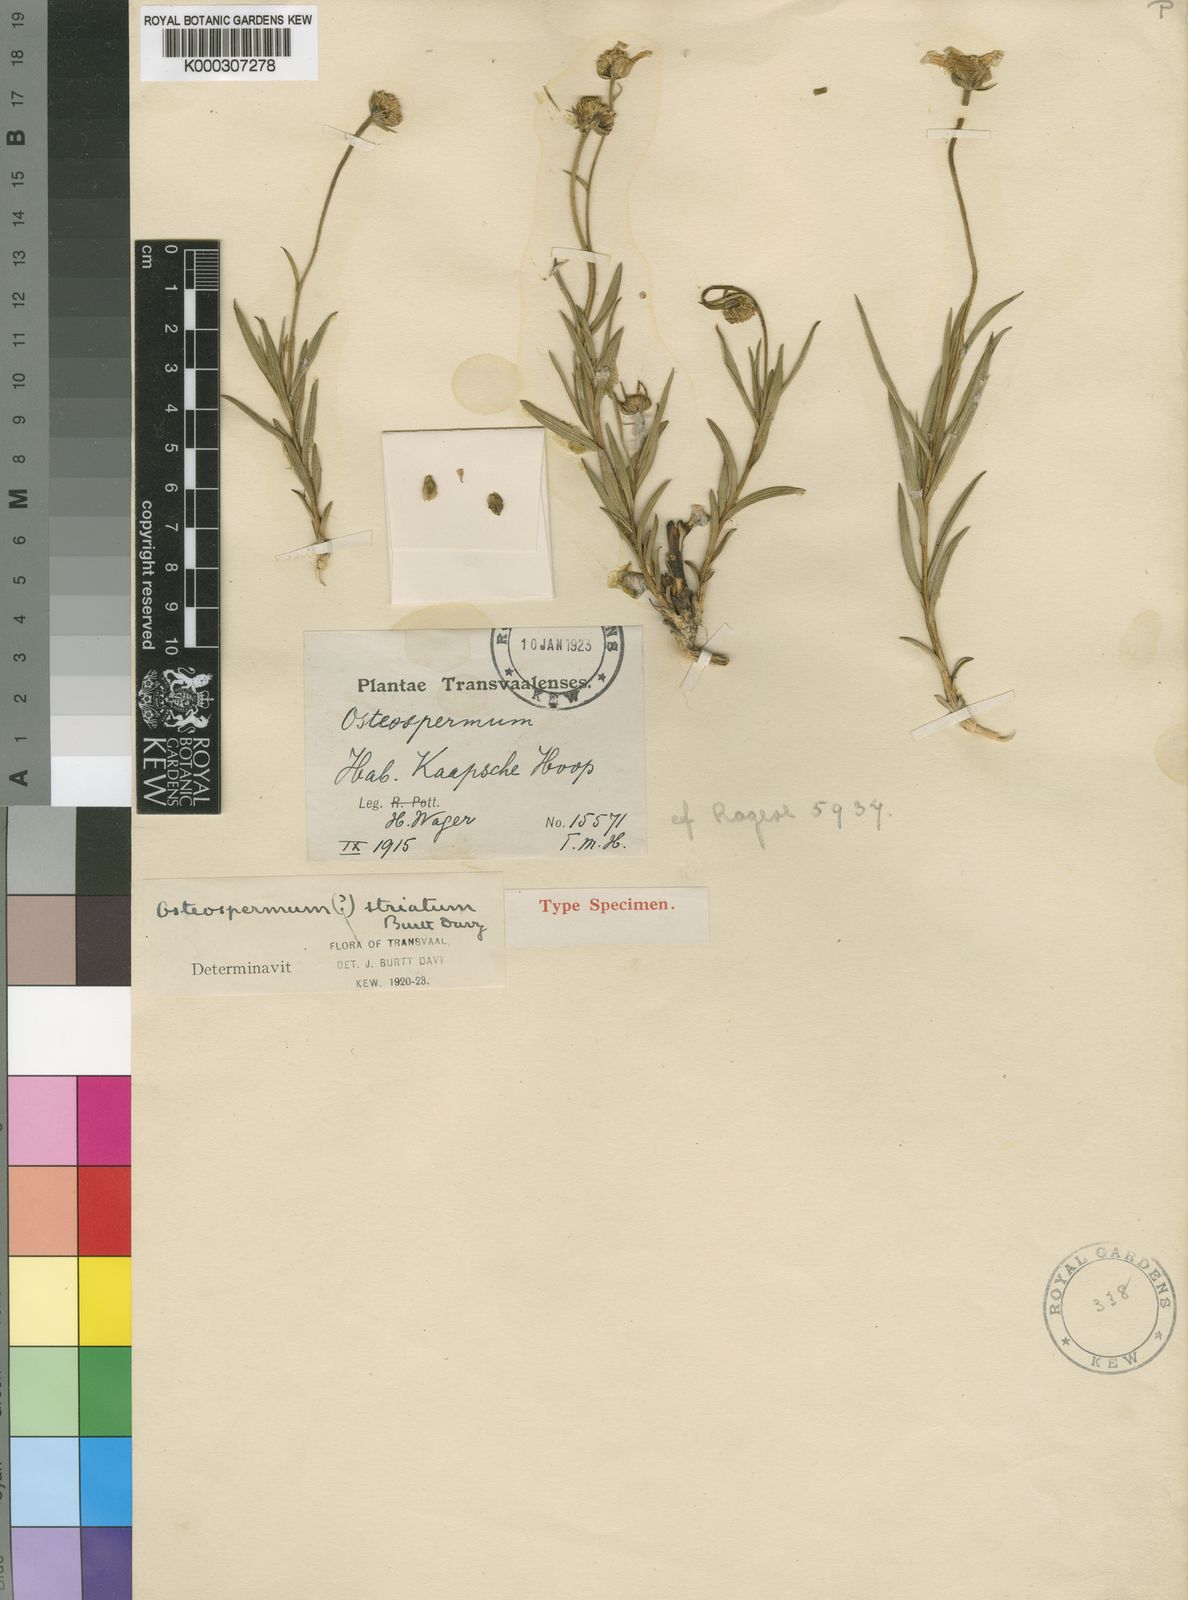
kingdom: Plantae
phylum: Tracheophyta
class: Magnoliopsida
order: Asterales
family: Asteraceae
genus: Osteospermum
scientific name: Osteospermum striatum
